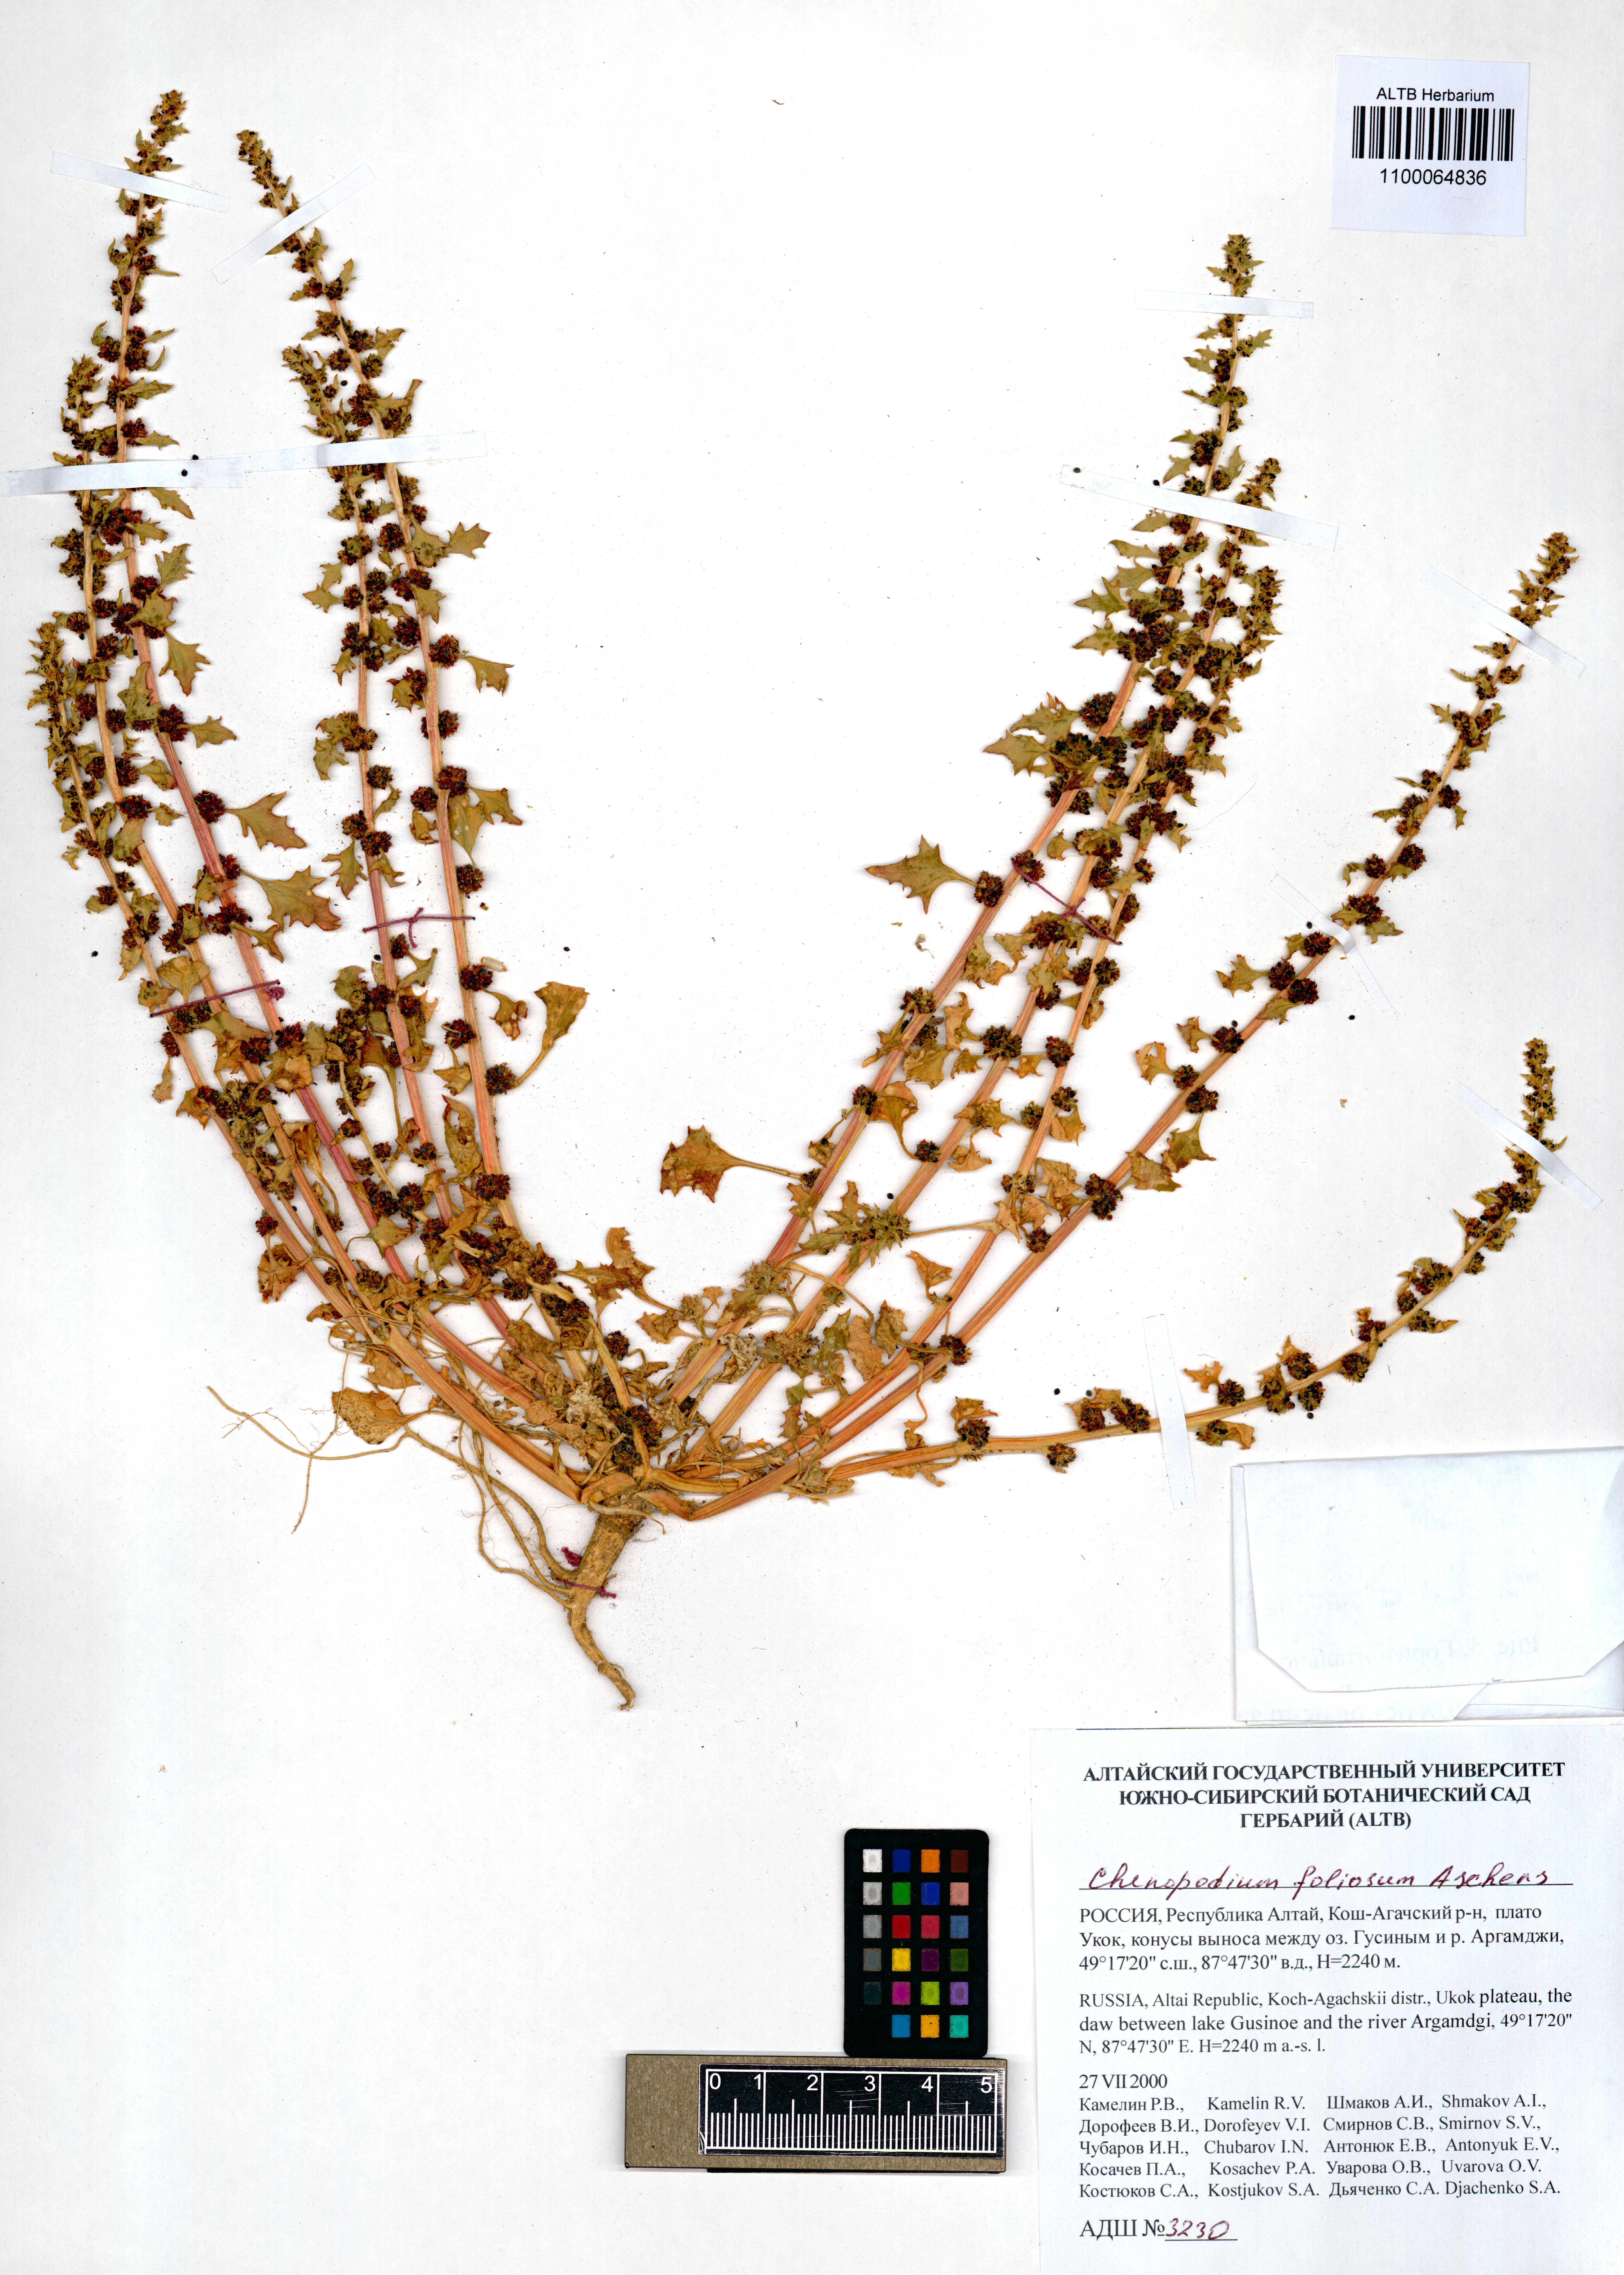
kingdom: Plantae
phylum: Tracheophyta
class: Magnoliopsida
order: Caryophyllales
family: Amaranthaceae
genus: Blitum
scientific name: Blitum virgatum
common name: Strawberry goosefoot
